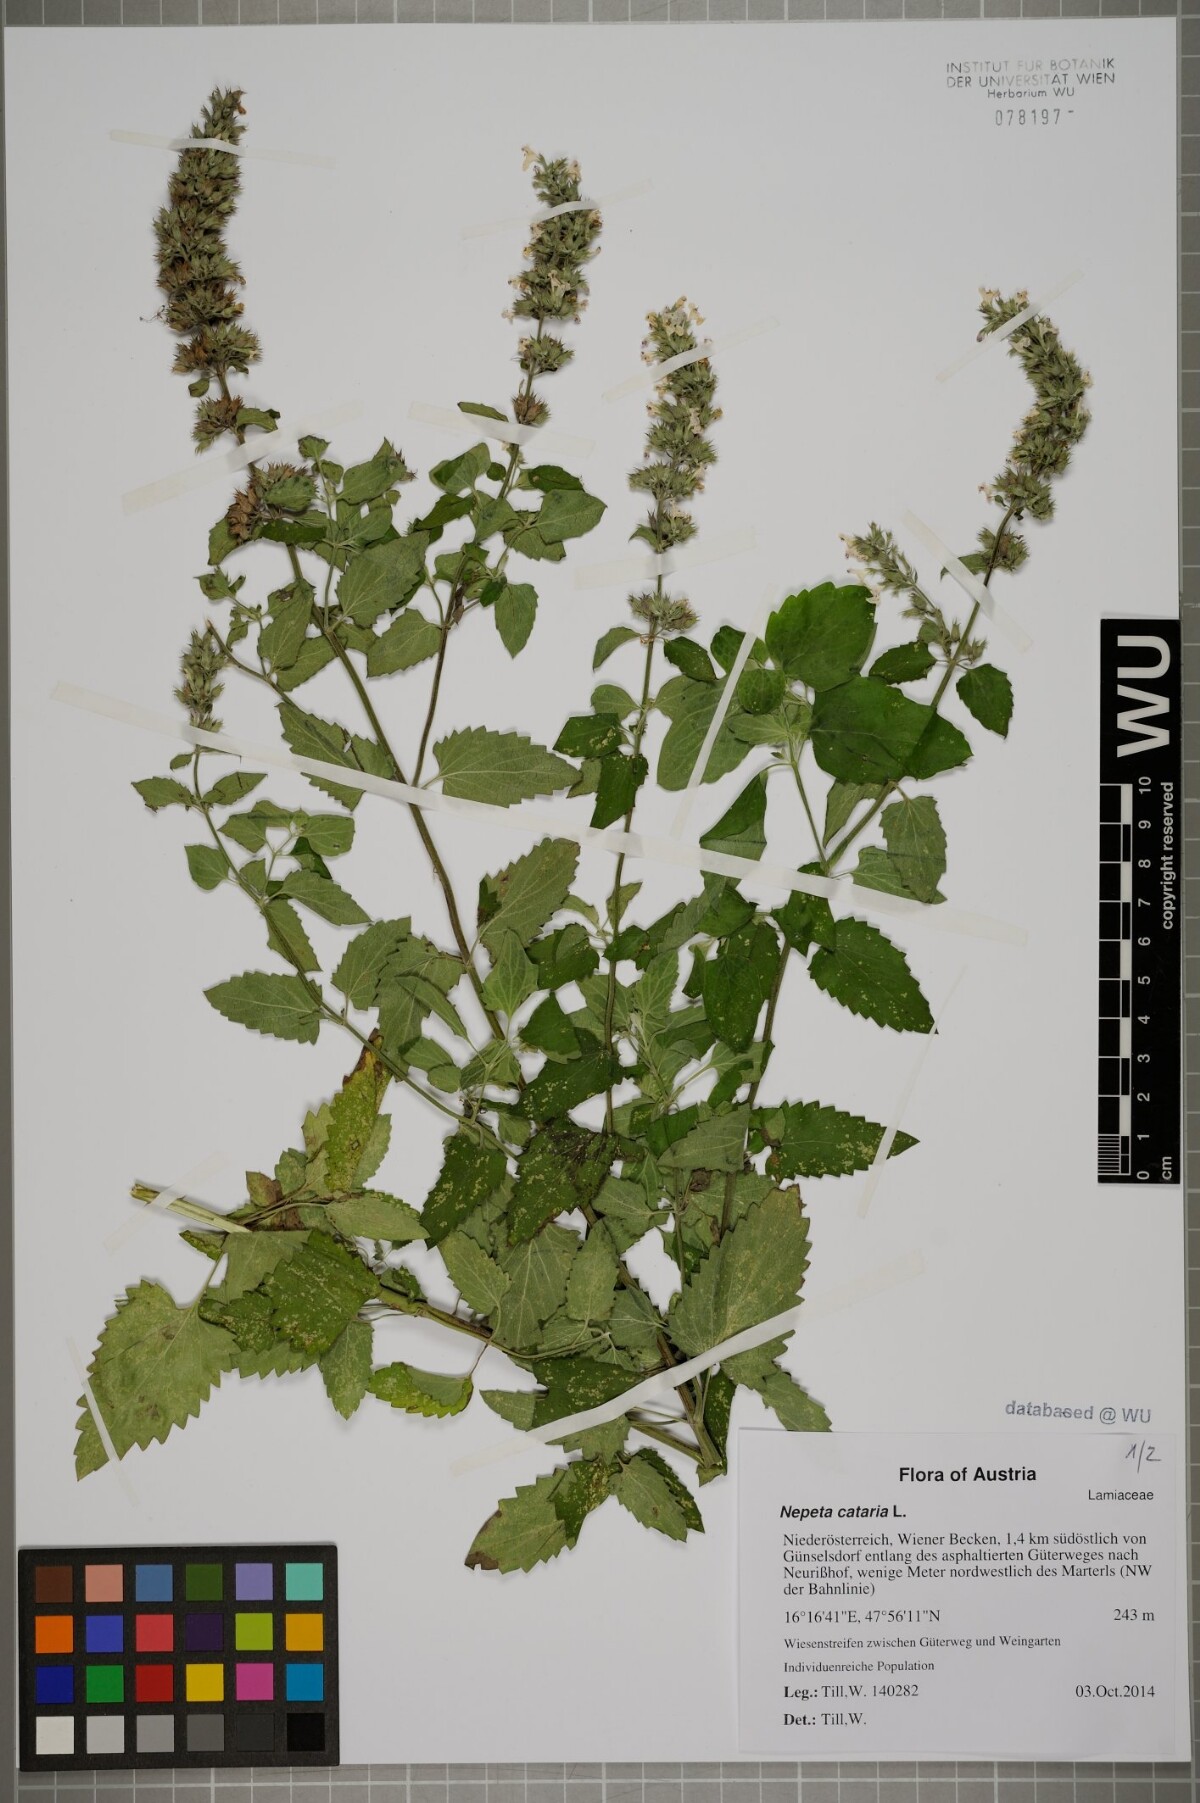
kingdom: Plantae
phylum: Tracheophyta
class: Magnoliopsida
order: Lamiales
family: Lamiaceae
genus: Nepeta
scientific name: Nepeta cataria
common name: Catnip
